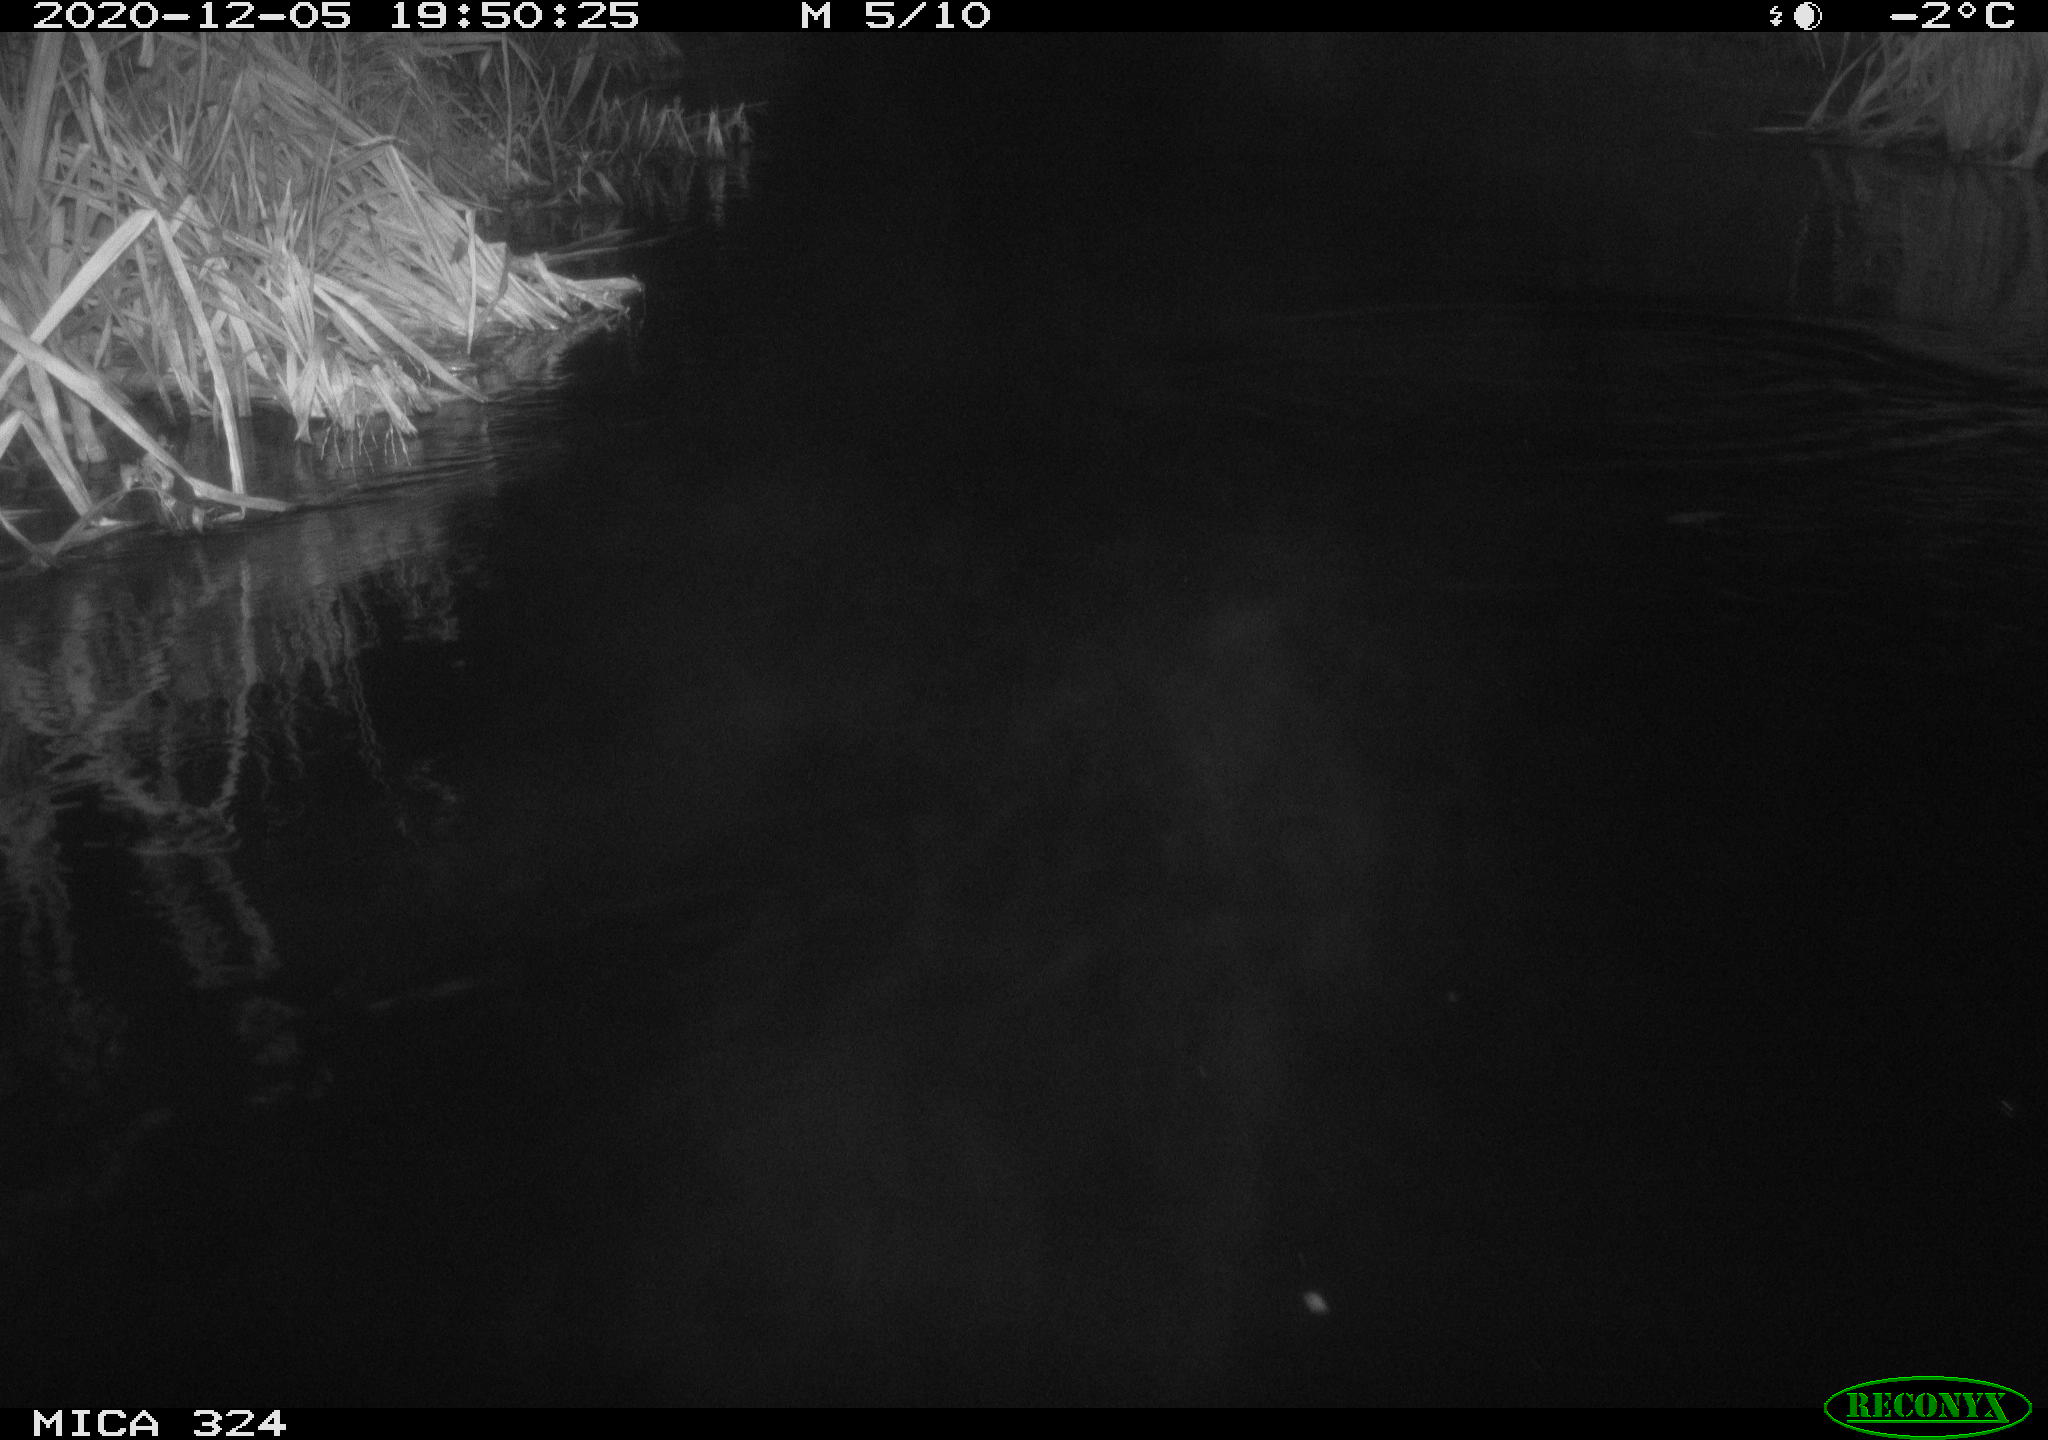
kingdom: Animalia
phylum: Chordata
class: Mammalia
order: Rodentia
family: Cricetidae
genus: Ondatra
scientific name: Ondatra zibethicus
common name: Muskrat
